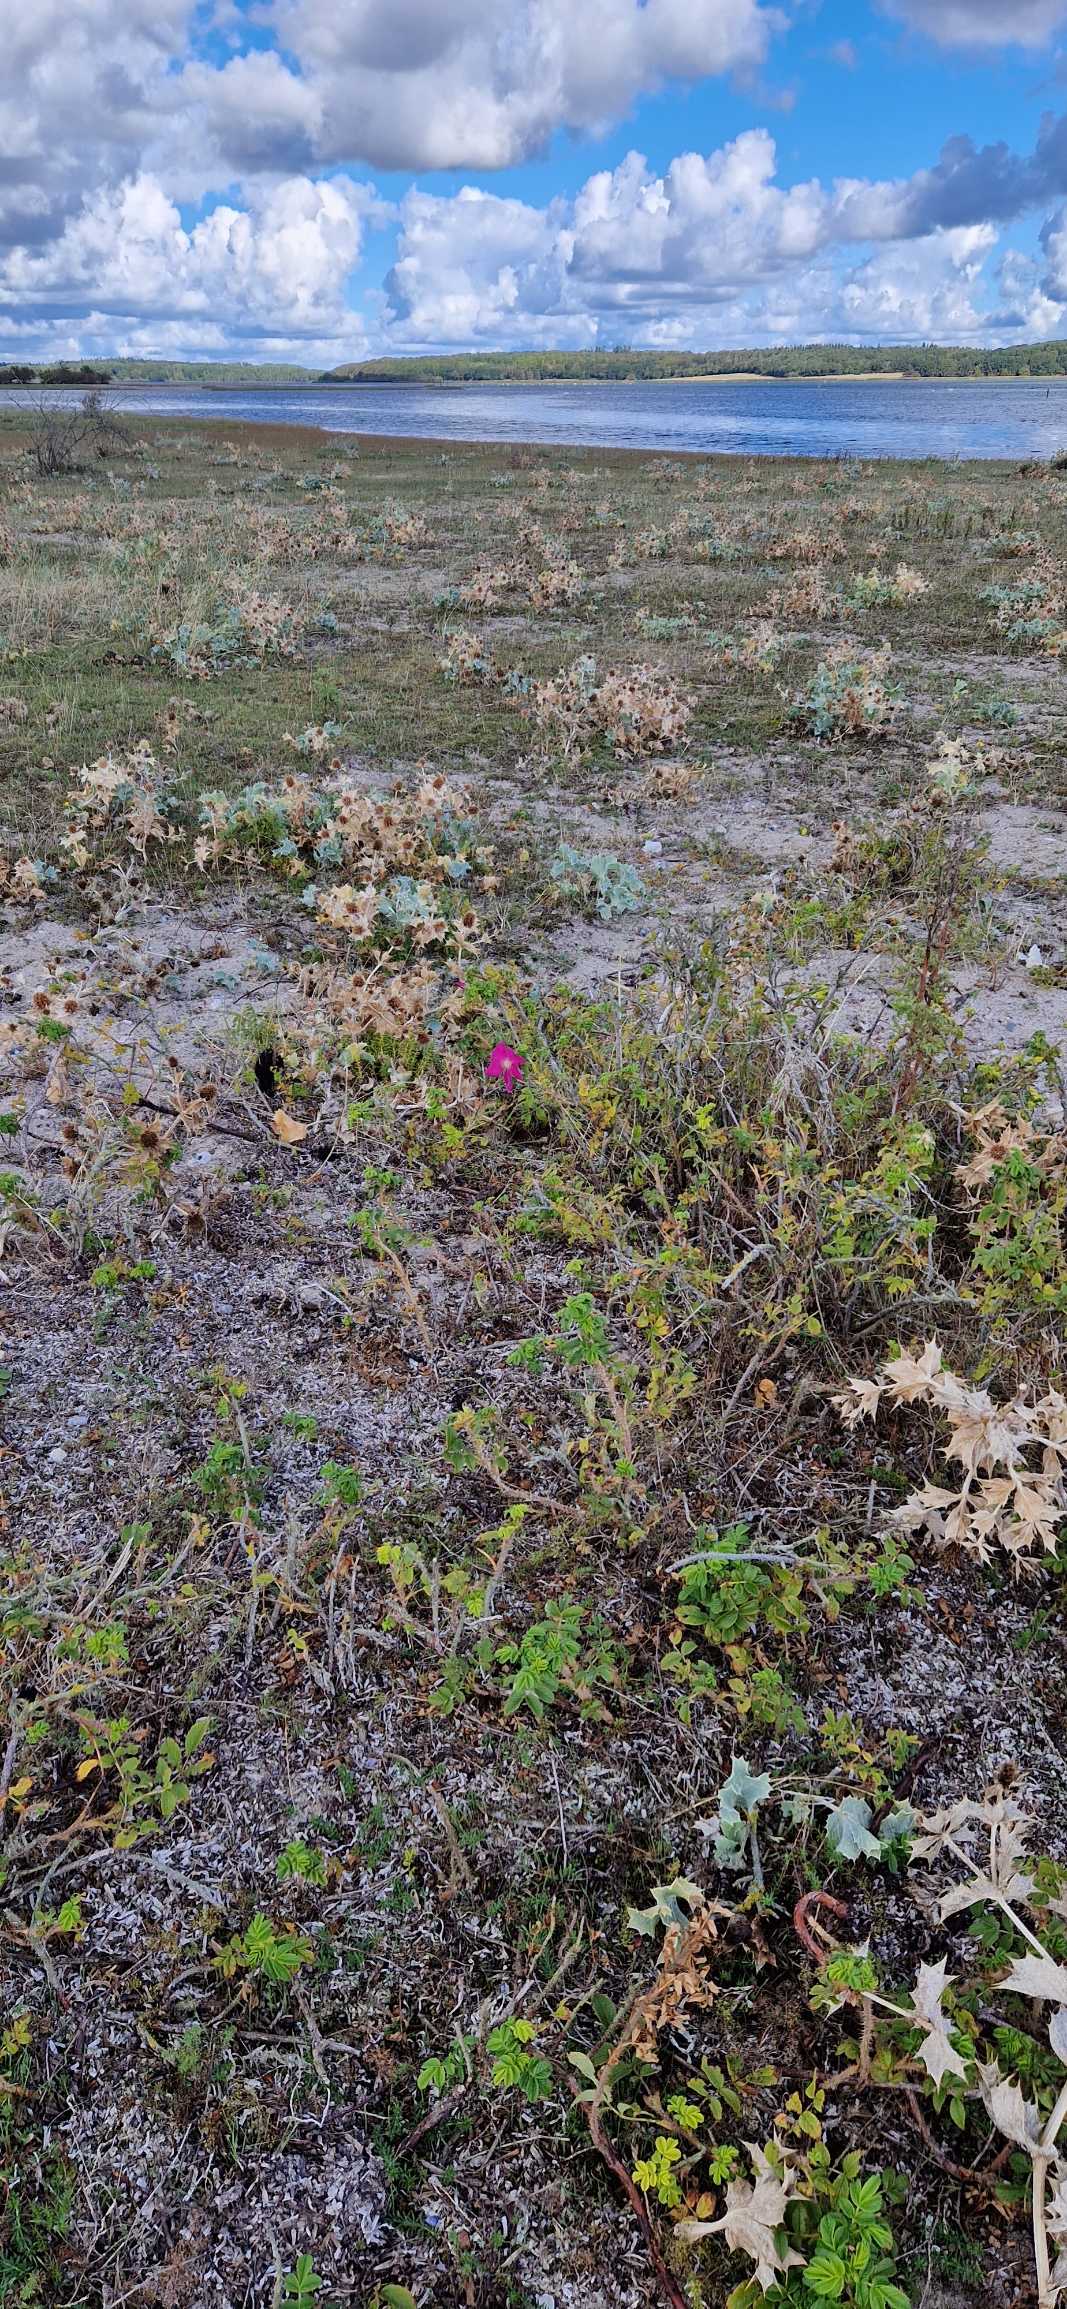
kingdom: Plantae
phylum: Tracheophyta
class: Magnoliopsida
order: Rosales
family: Rosaceae
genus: Rosa
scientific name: Rosa rugosa
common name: Rynket rose
